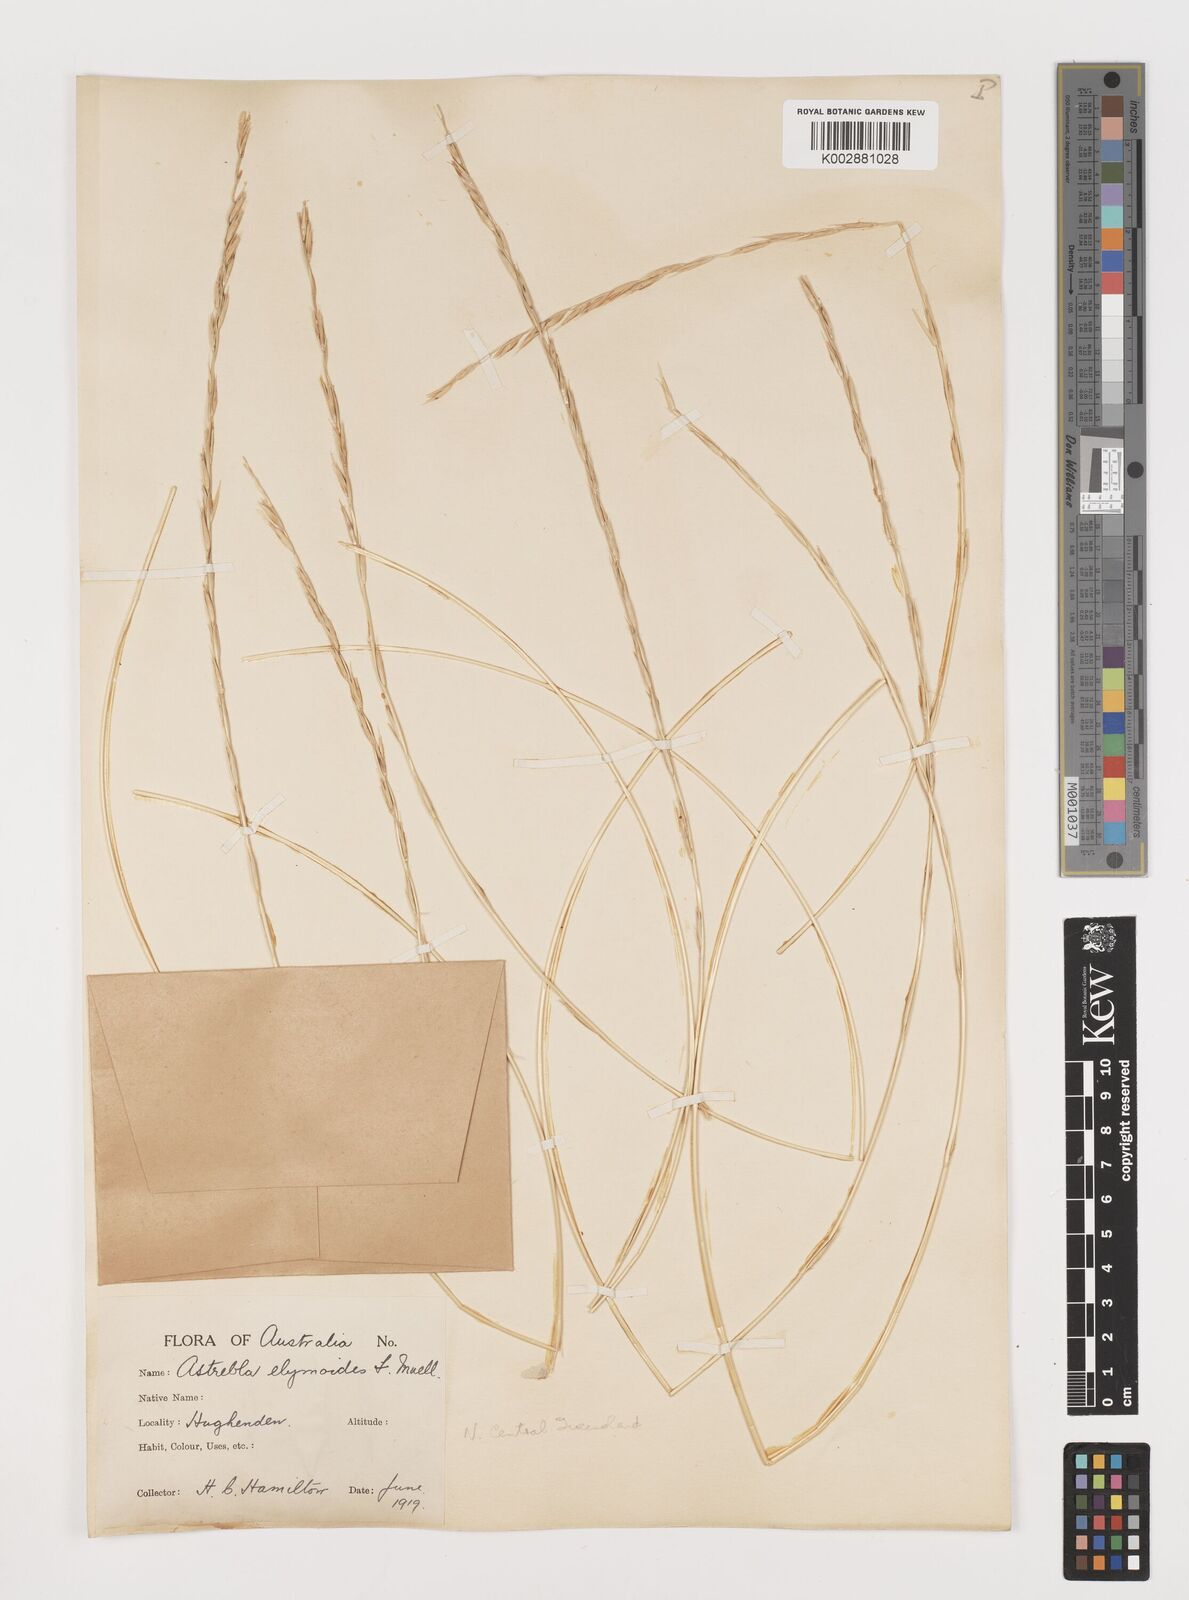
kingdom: Plantae
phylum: Tracheophyta
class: Liliopsida
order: Poales
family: Poaceae
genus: Astrebla
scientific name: Astrebla elymoides
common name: Hoop mitchell grass
